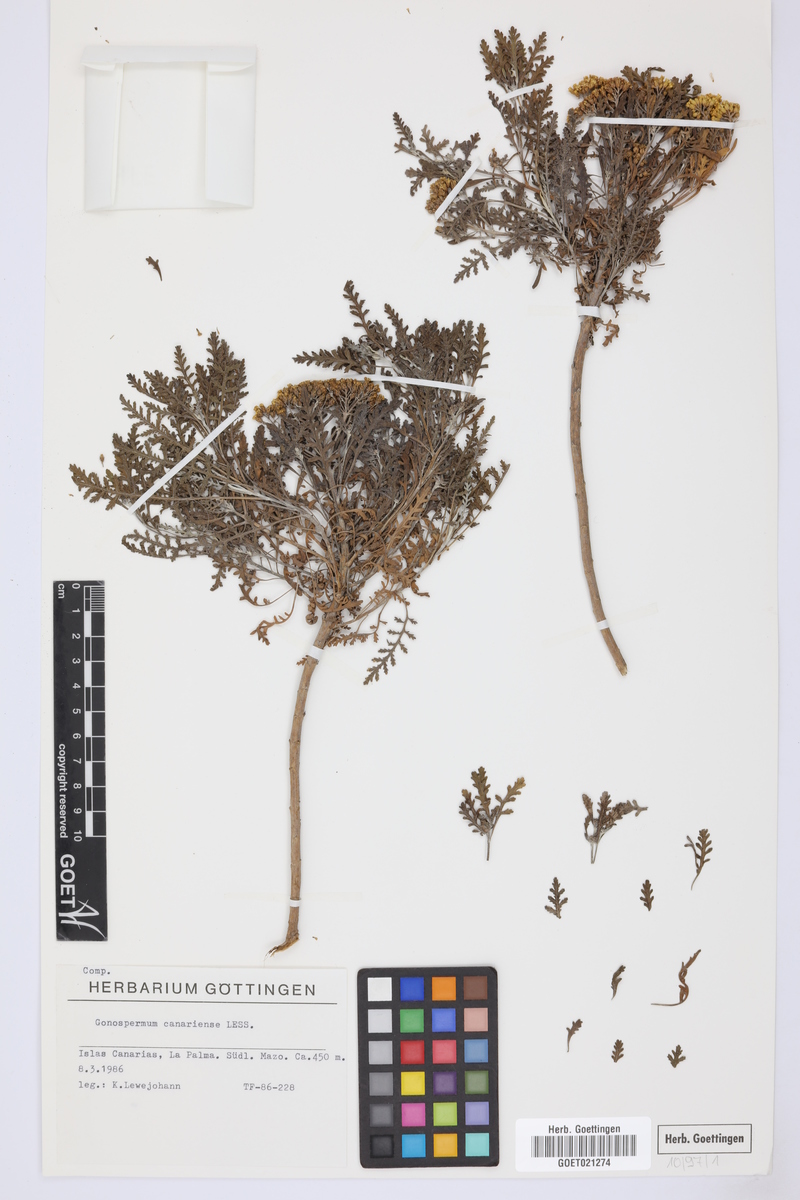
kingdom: Plantae
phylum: Tracheophyta
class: Magnoliopsida
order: Asterales
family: Asteraceae
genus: Gonospermum
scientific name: Gonospermum canariense
